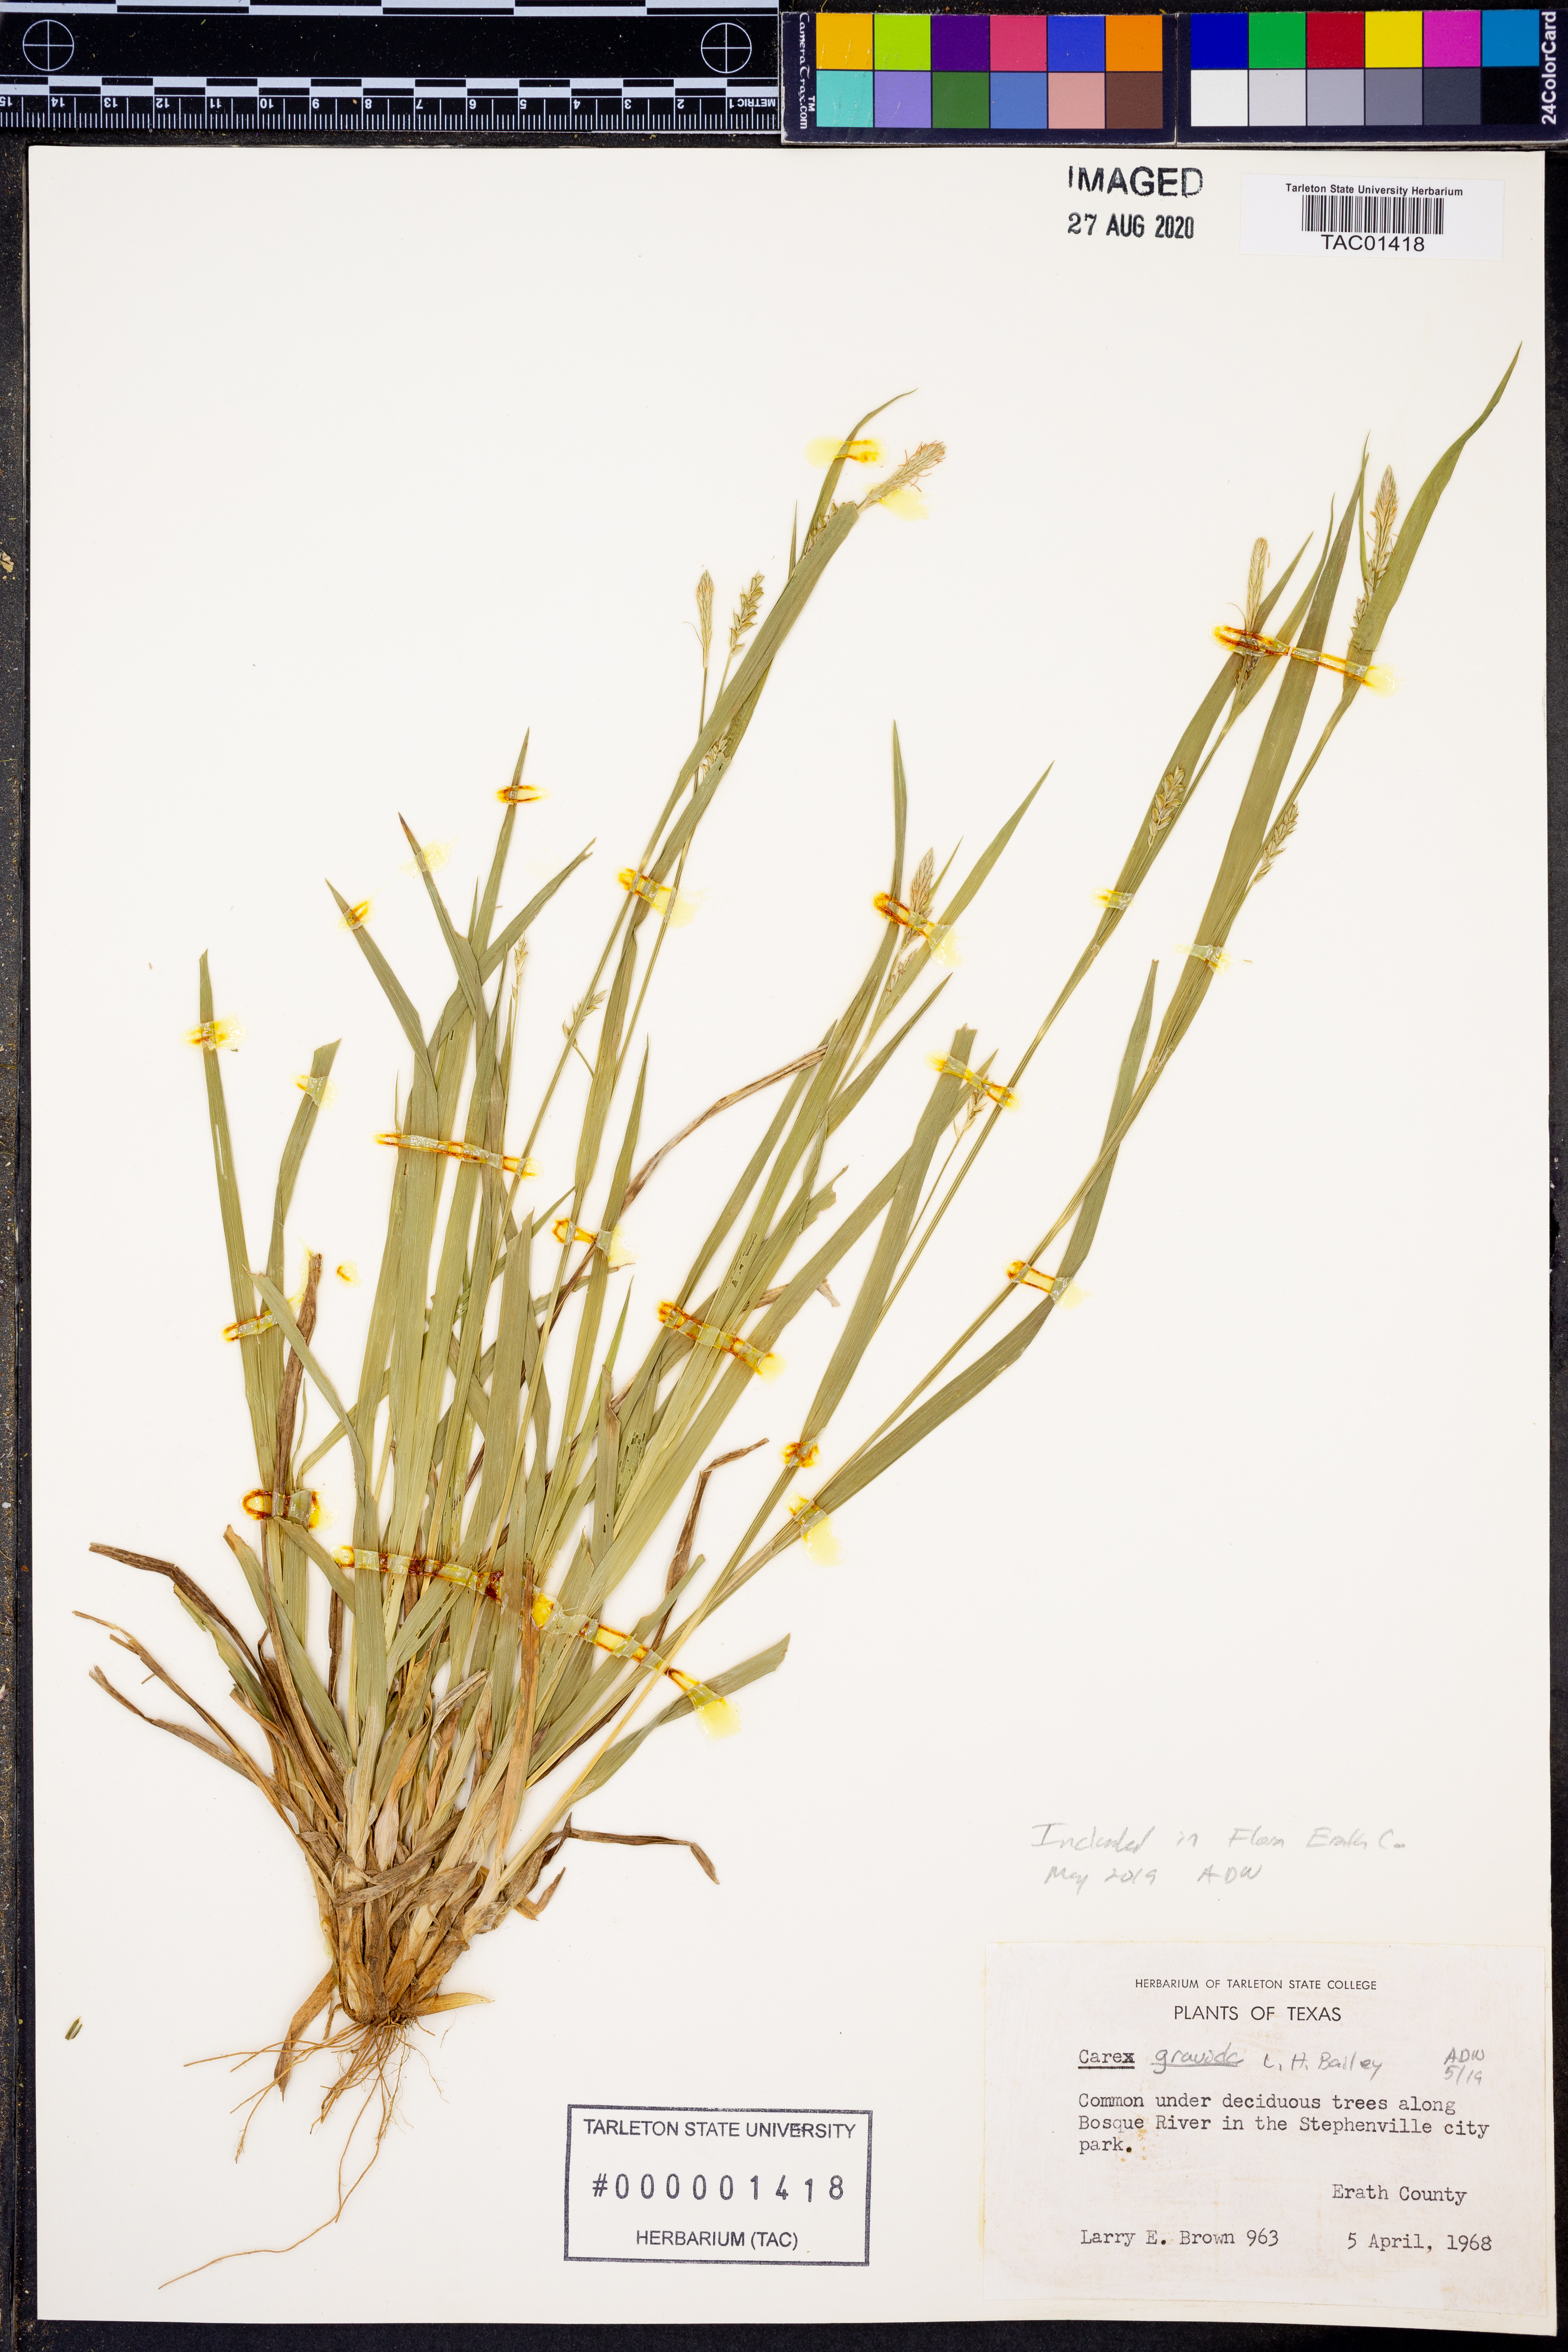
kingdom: Plantae
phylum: Tracheophyta
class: Liliopsida
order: Poales
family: Cyperaceae
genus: Carex
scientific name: Carex gravida
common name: Heavy sedge
